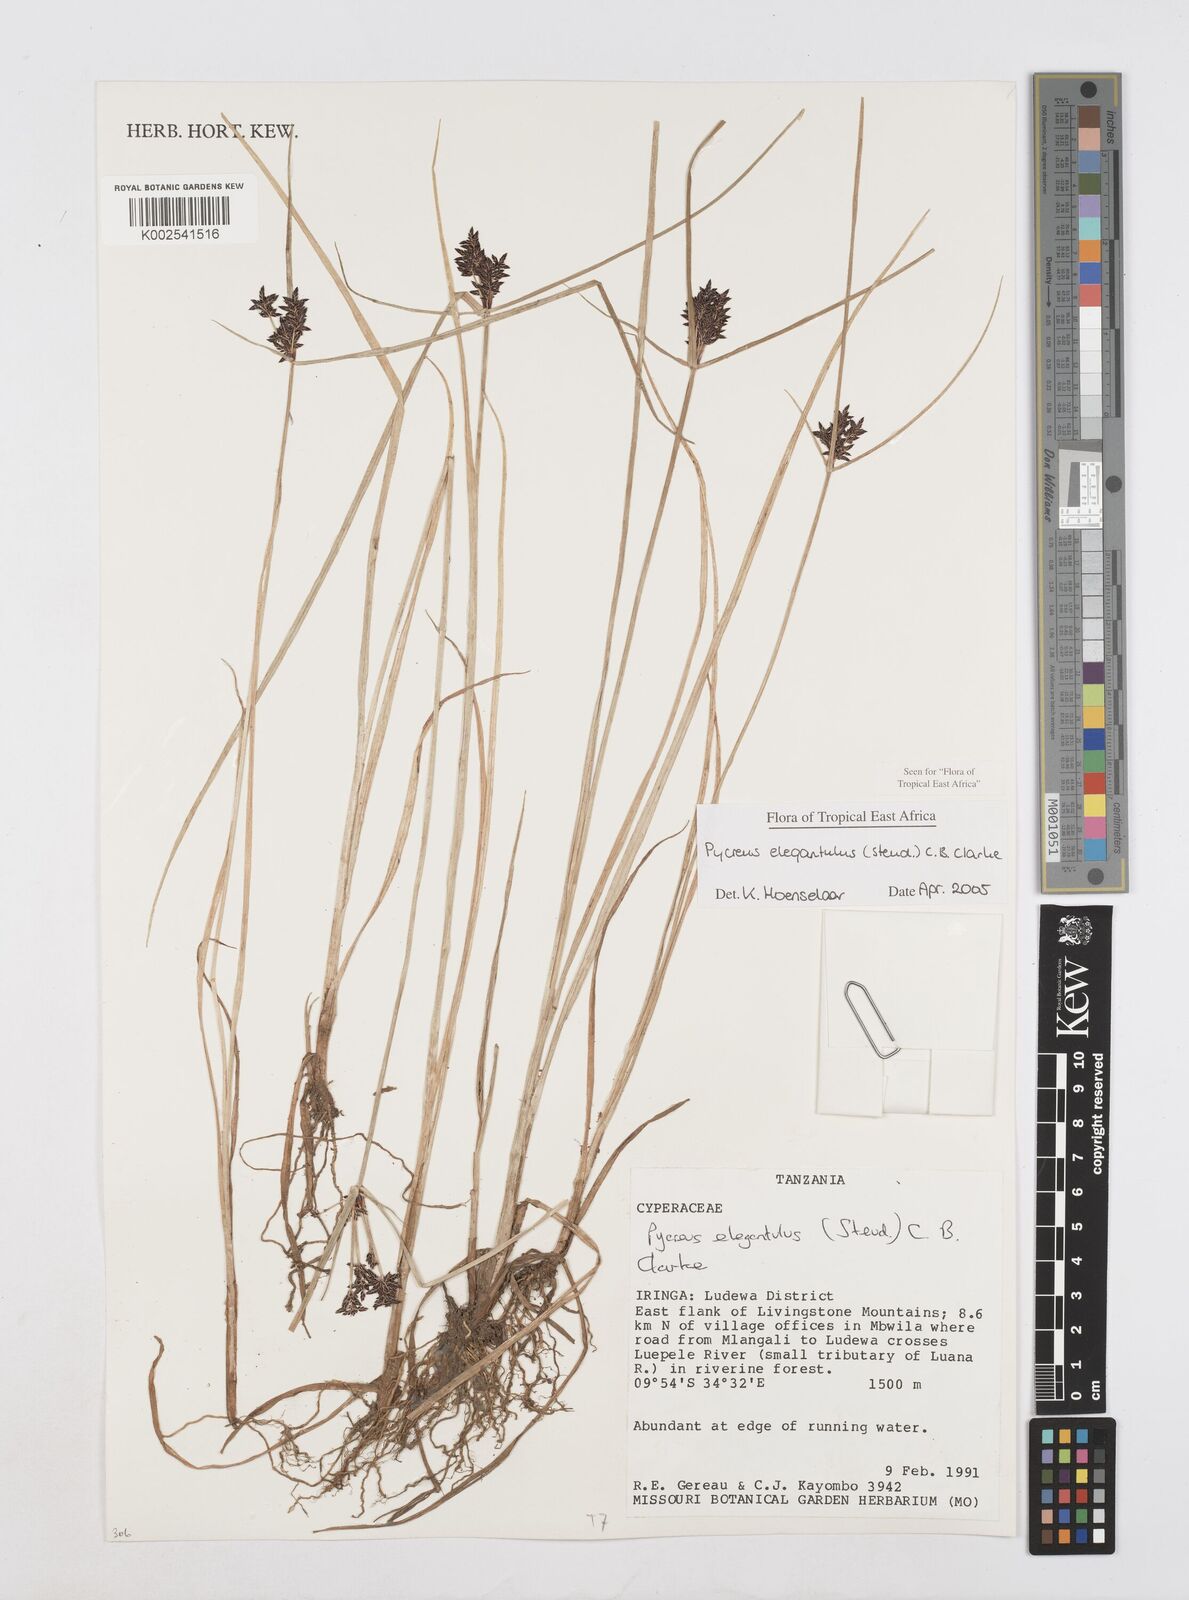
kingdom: Plantae
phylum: Tracheophyta
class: Liliopsida
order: Poales
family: Cyperaceae
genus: Cyperus
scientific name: Cyperus elegantulus
